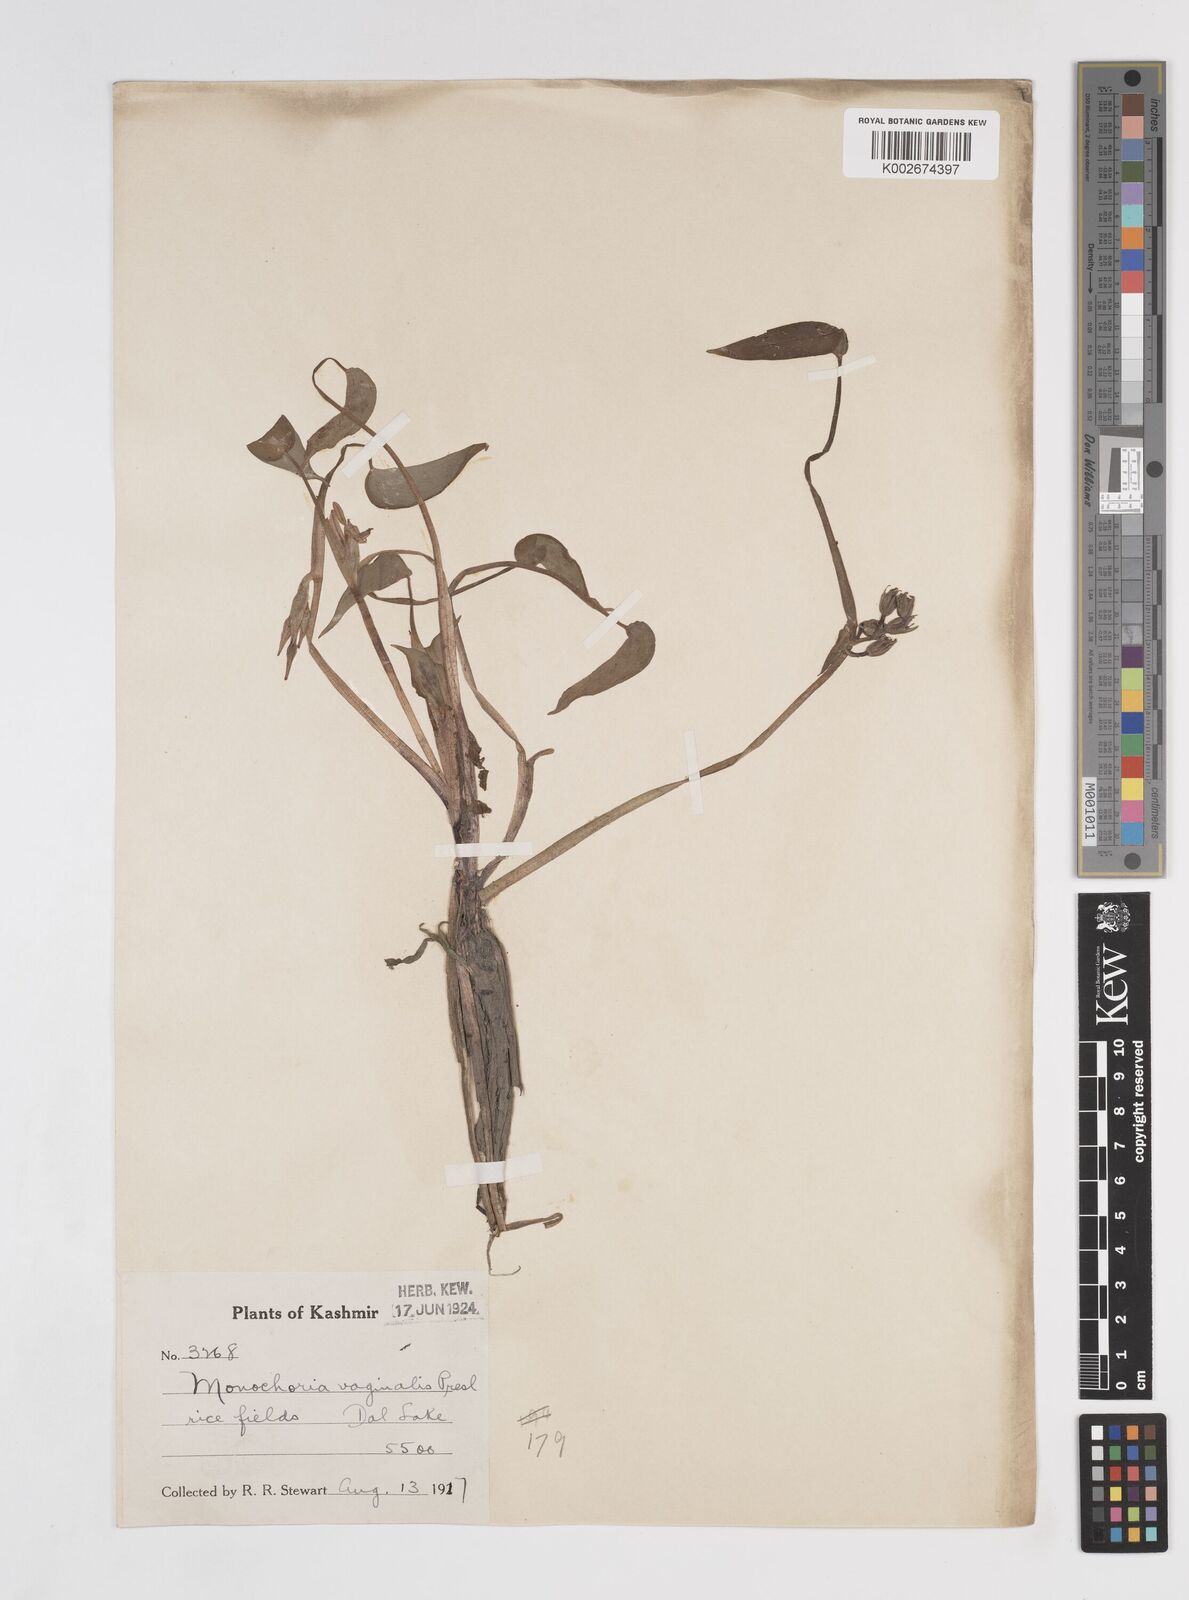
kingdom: Plantae
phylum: Tracheophyta
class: Liliopsida
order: Commelinales
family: Pontederiaceae
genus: Pontederia
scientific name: Pontederia vaginalis
